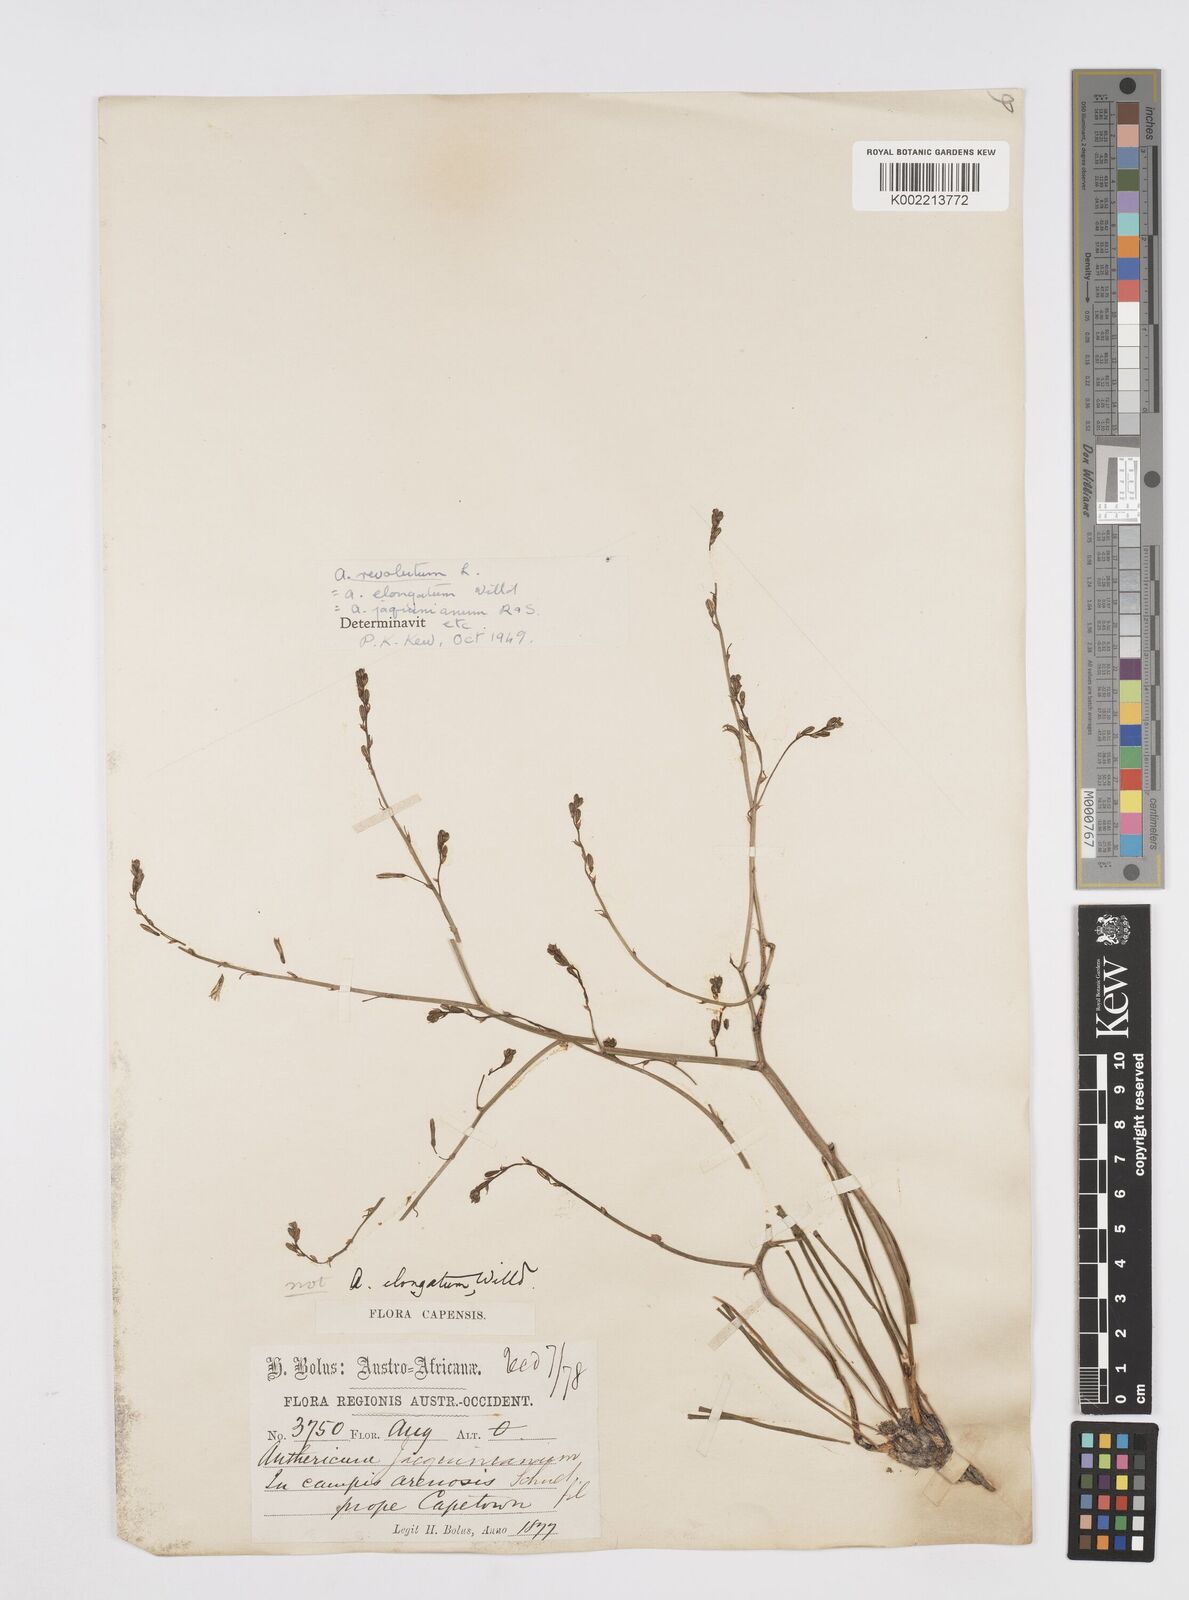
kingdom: Plantae
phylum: Tracheophyta
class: Liliopsida
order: Asparagales
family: Asphodelaceae
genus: Trachyandra
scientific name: Trachyandra revoluta
